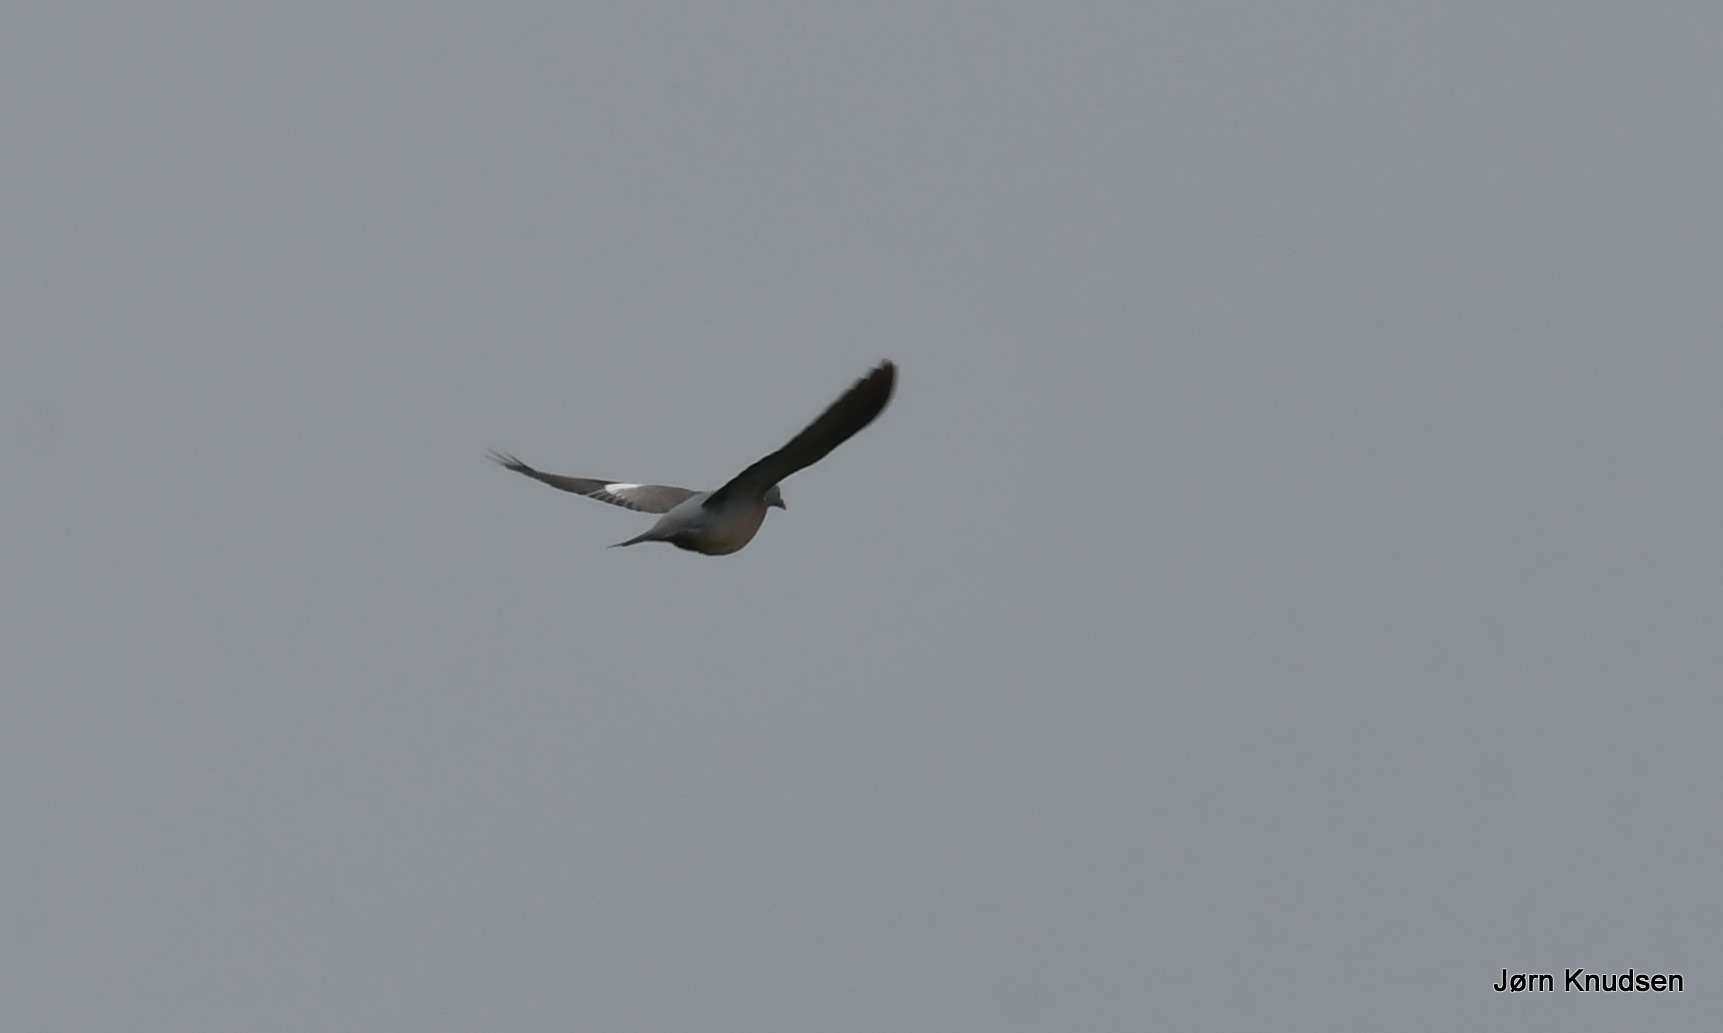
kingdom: Animalia
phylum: Chordata
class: Aves
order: Columbiformes
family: Columbidae
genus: Columba
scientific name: Columba palumbus
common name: Ringdue
